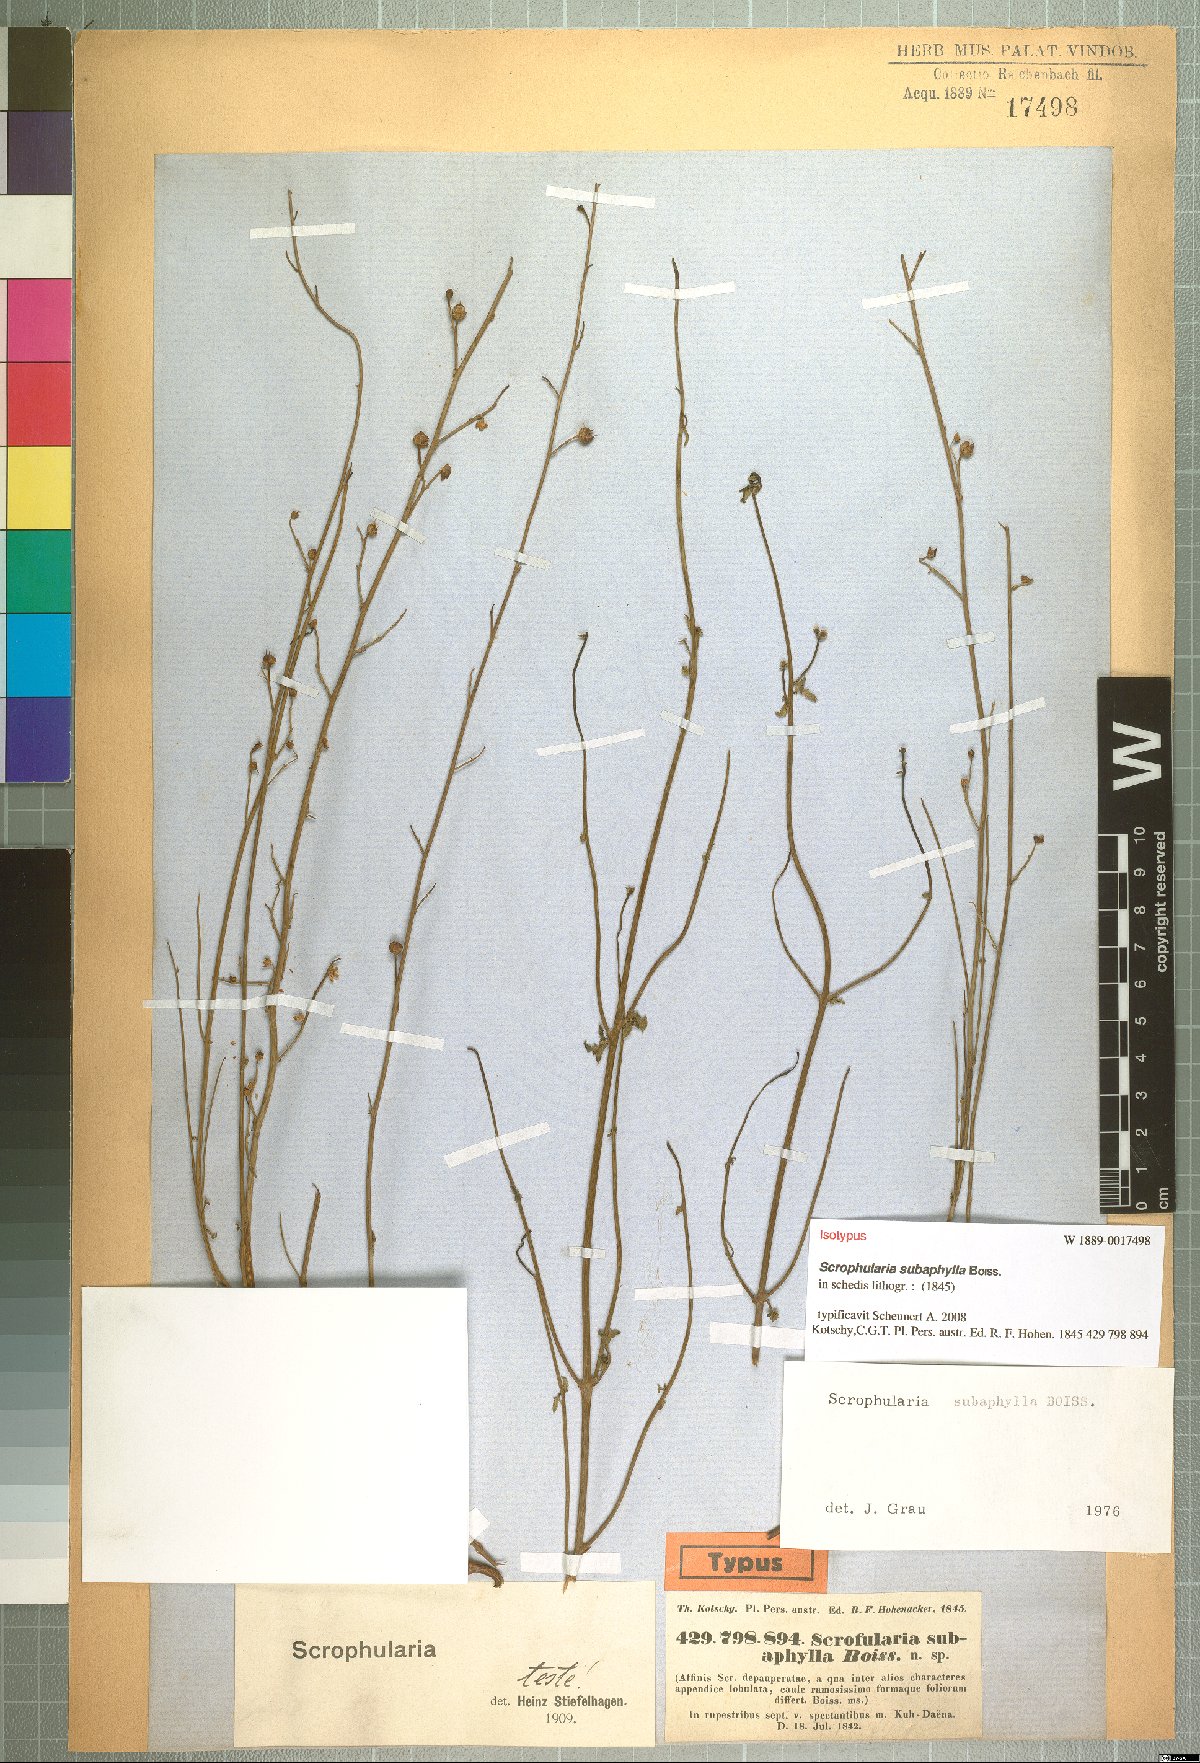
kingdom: Plantae
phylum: Tracheophyta
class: Magnoliopsida
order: Lamiales
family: Scrophulariaceae
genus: Scrophularia
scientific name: Scrophularia subaphylla
